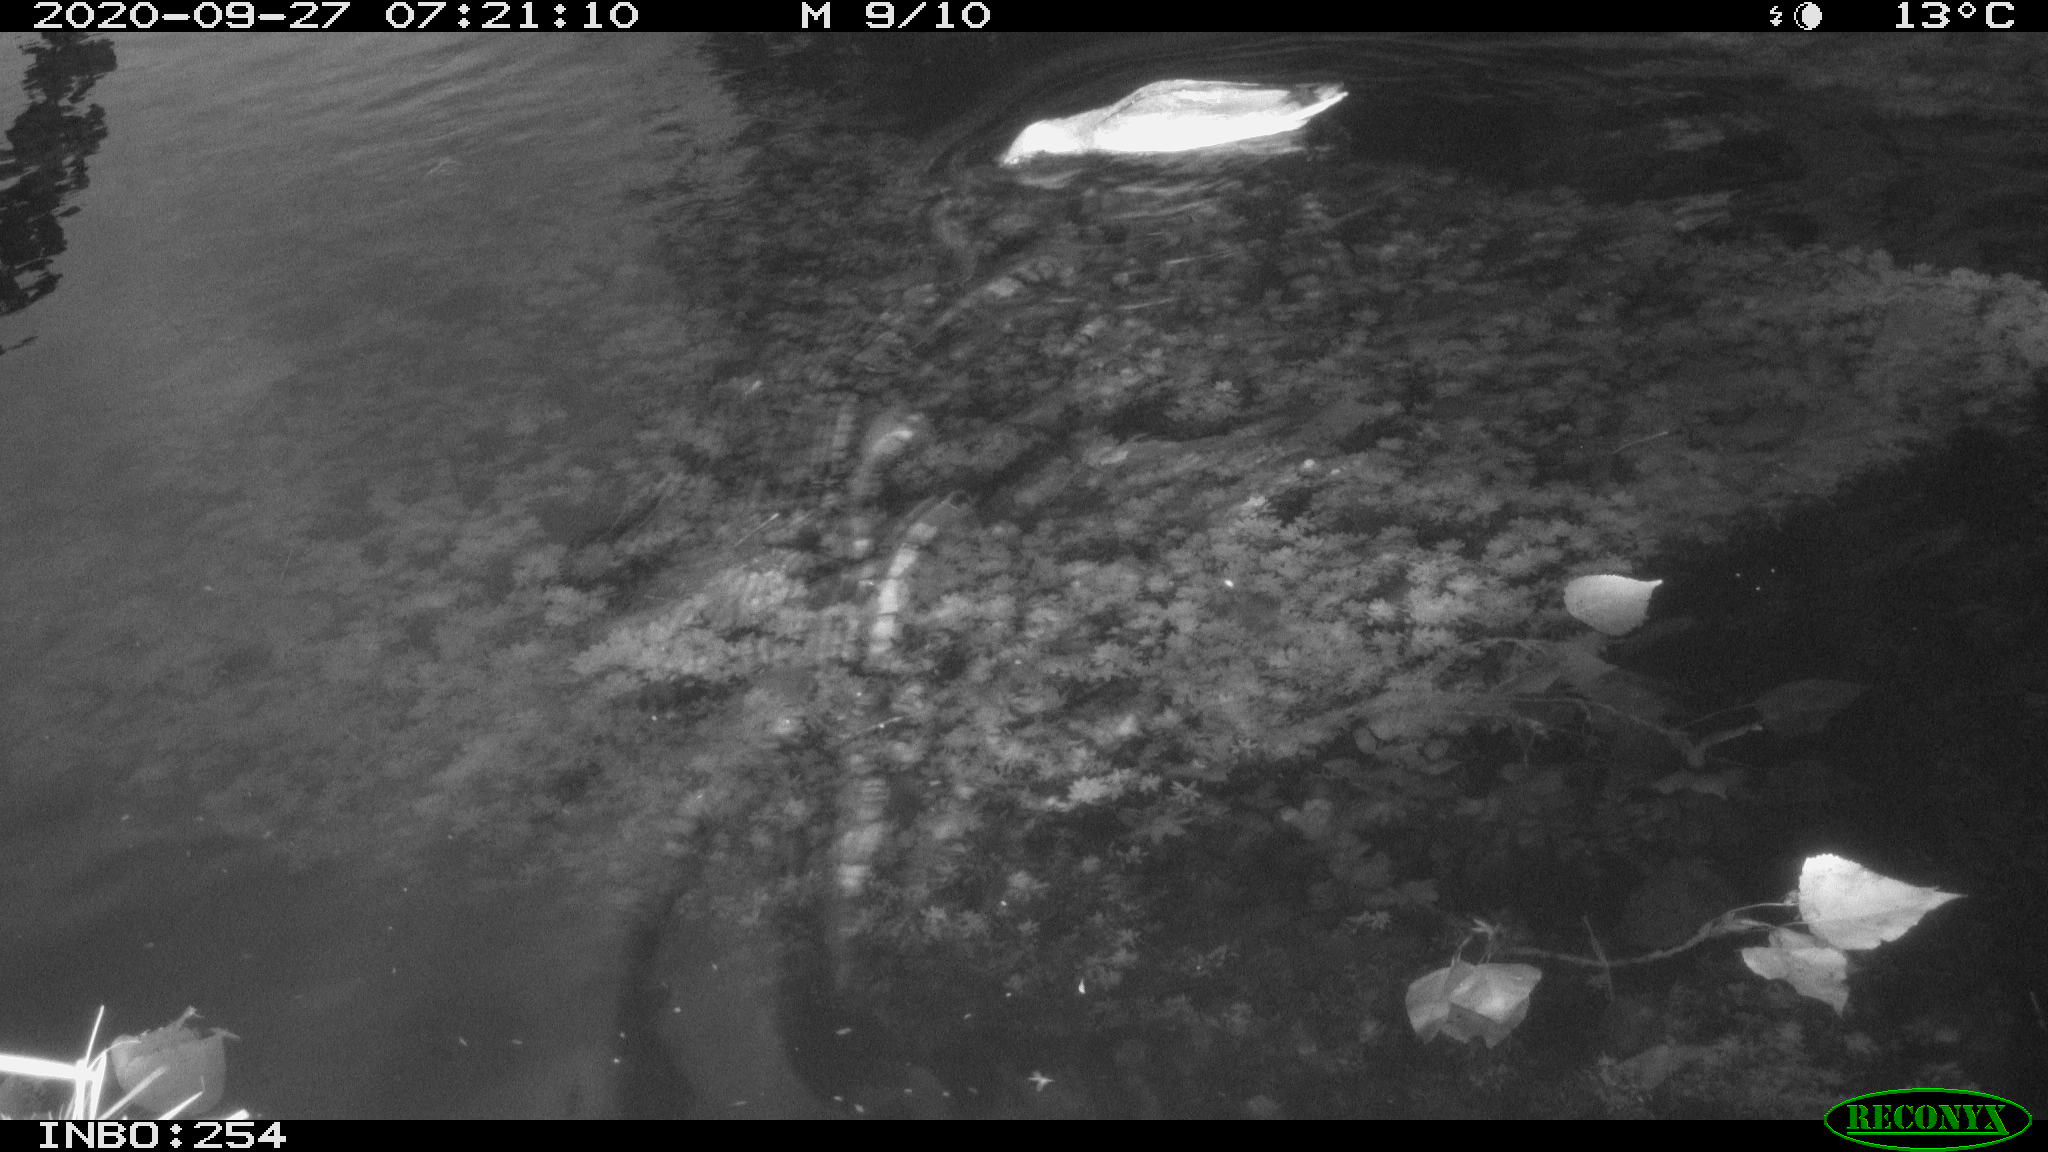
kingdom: Animalia
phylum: Chordata
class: Aves
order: Anseriformes
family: Anatidae
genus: Anas
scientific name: Anas platyrhynchos
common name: Mallard
